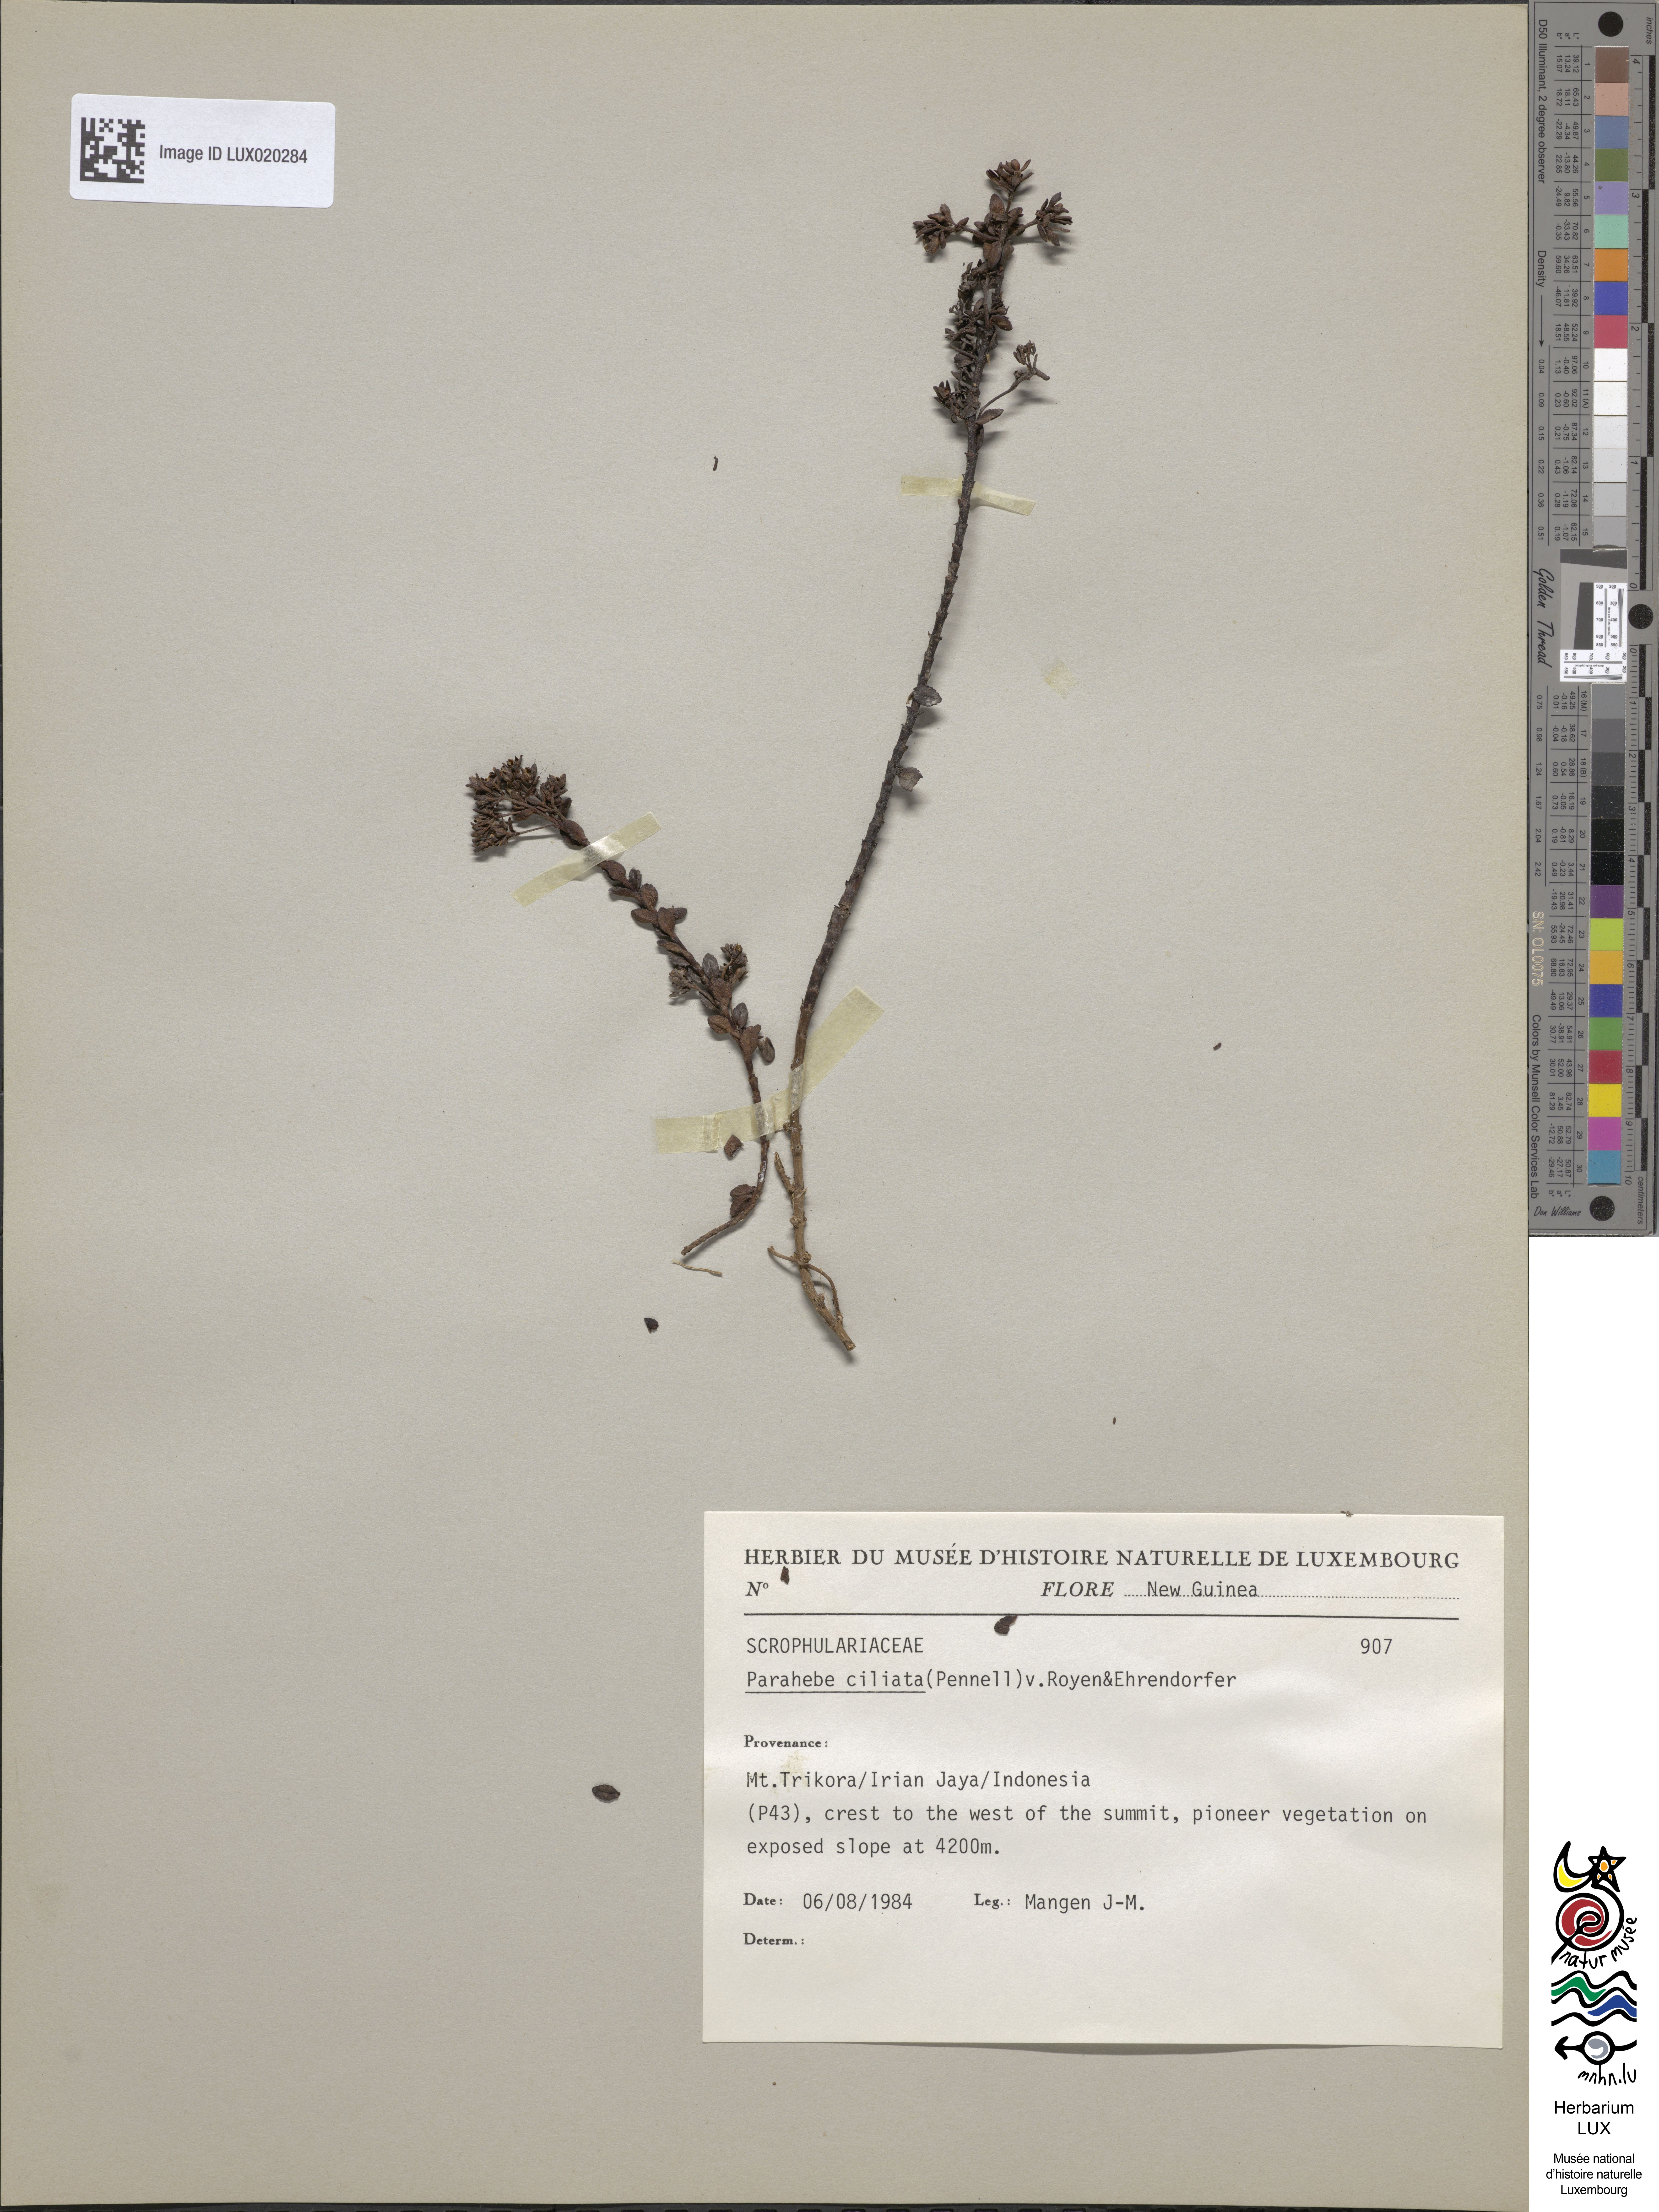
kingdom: Plantae
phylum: Tracheophyta
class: Magnoliopsida
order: Lamiales
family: Plantaginaceae
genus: Veronica
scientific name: Veronica ionantha
